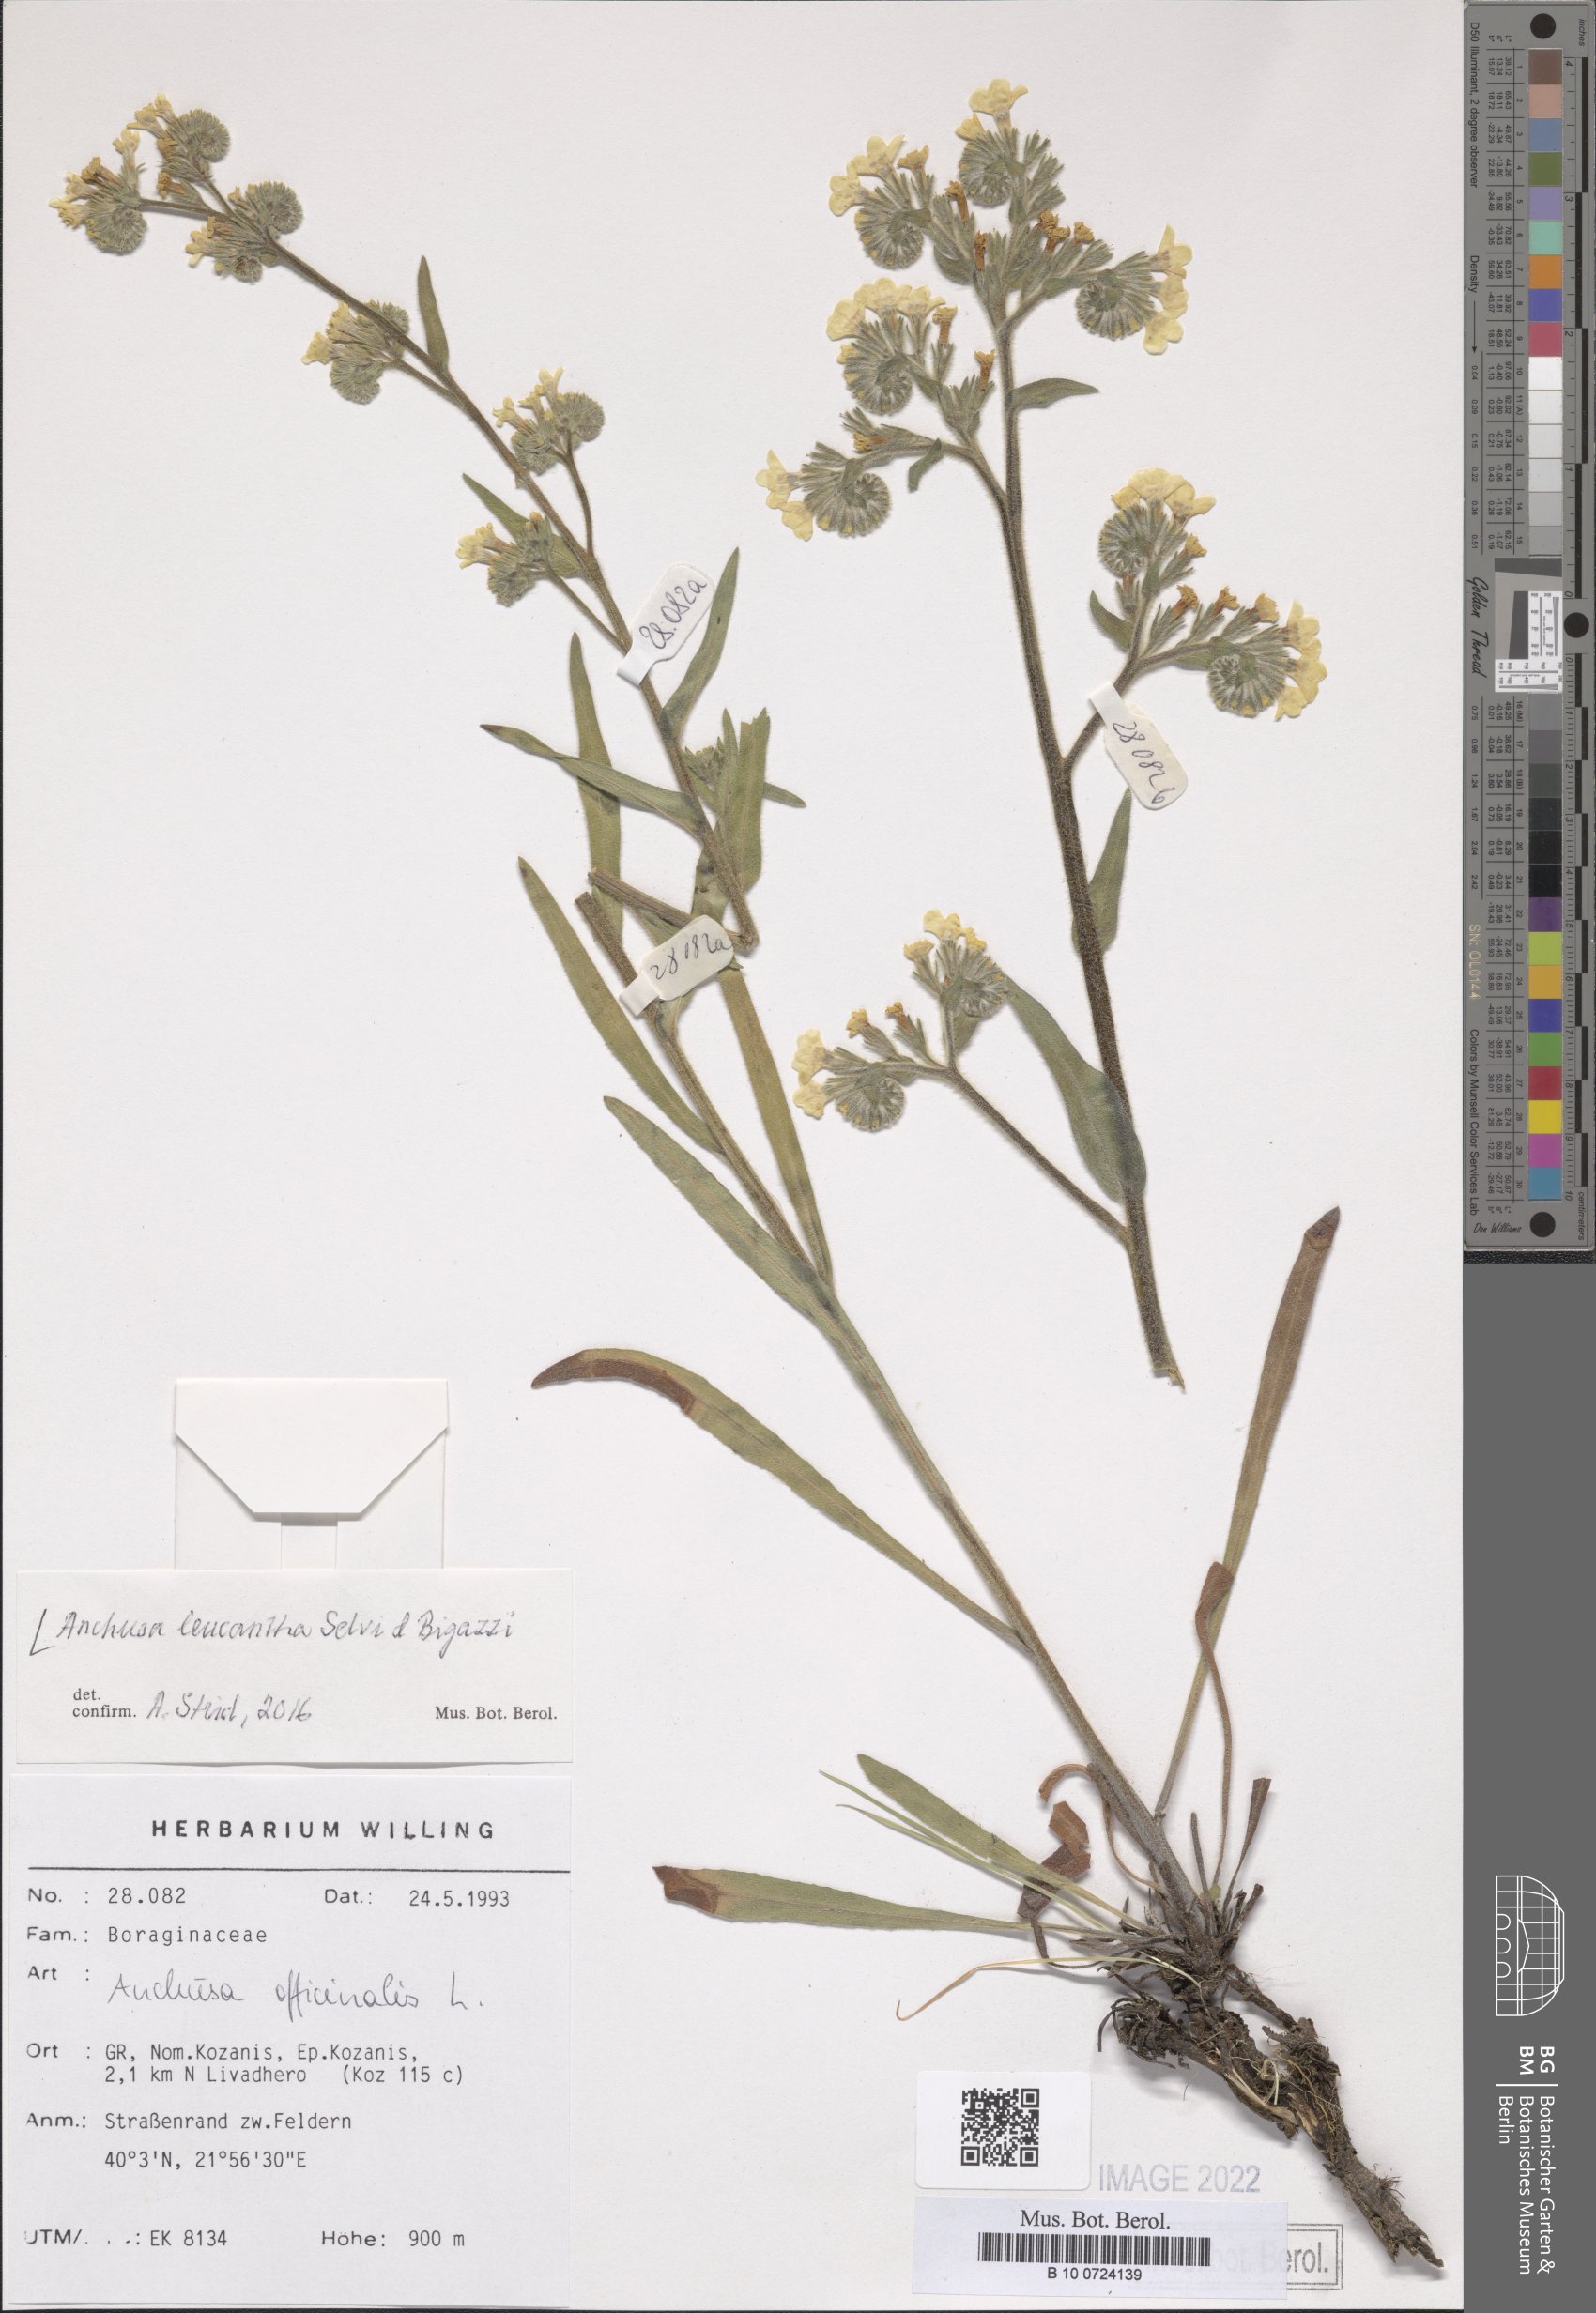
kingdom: Plantae
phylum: Tracheophyta
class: Magnoliopsida
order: Boraginales
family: Boraginaceae
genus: Anchusa
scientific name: Anchusa officinalis
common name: Alkanet
